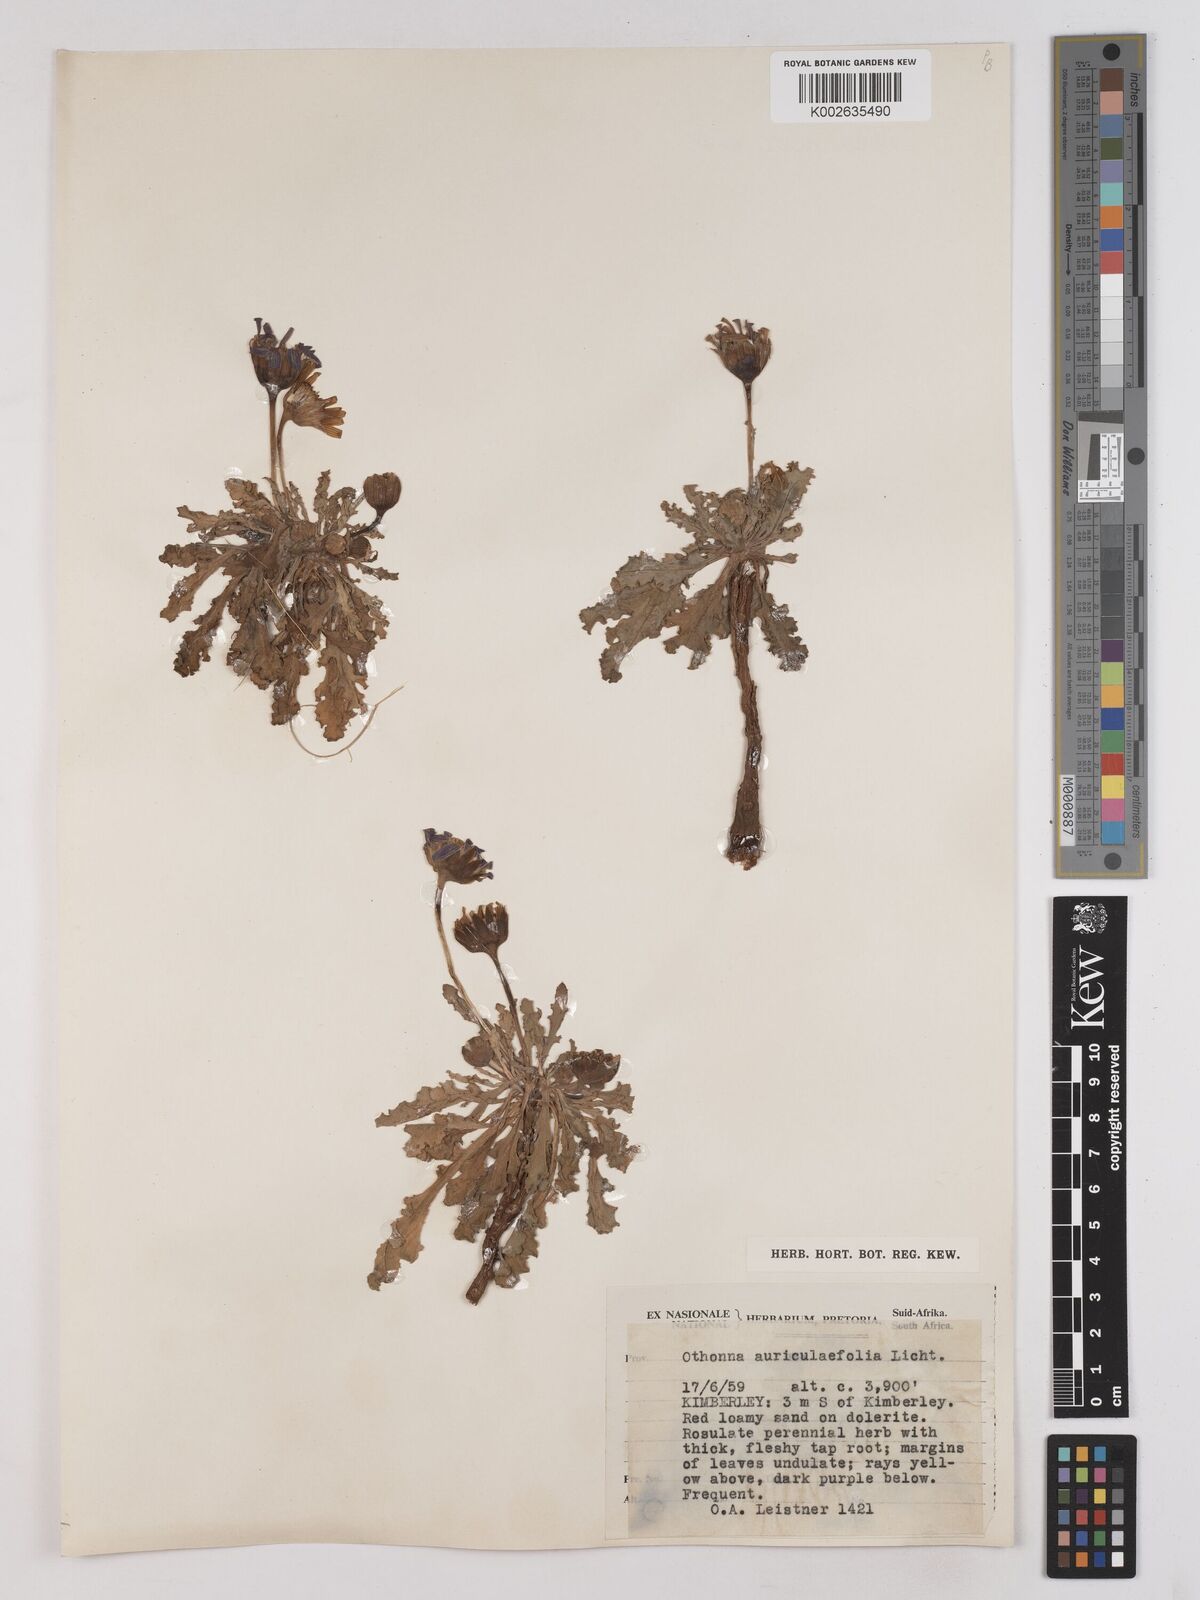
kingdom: Plantae
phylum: Tracheophyta
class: Magnoliopsida
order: Asterales
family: Asteraceae
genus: Othonna
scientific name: Othonna auriculifolia
